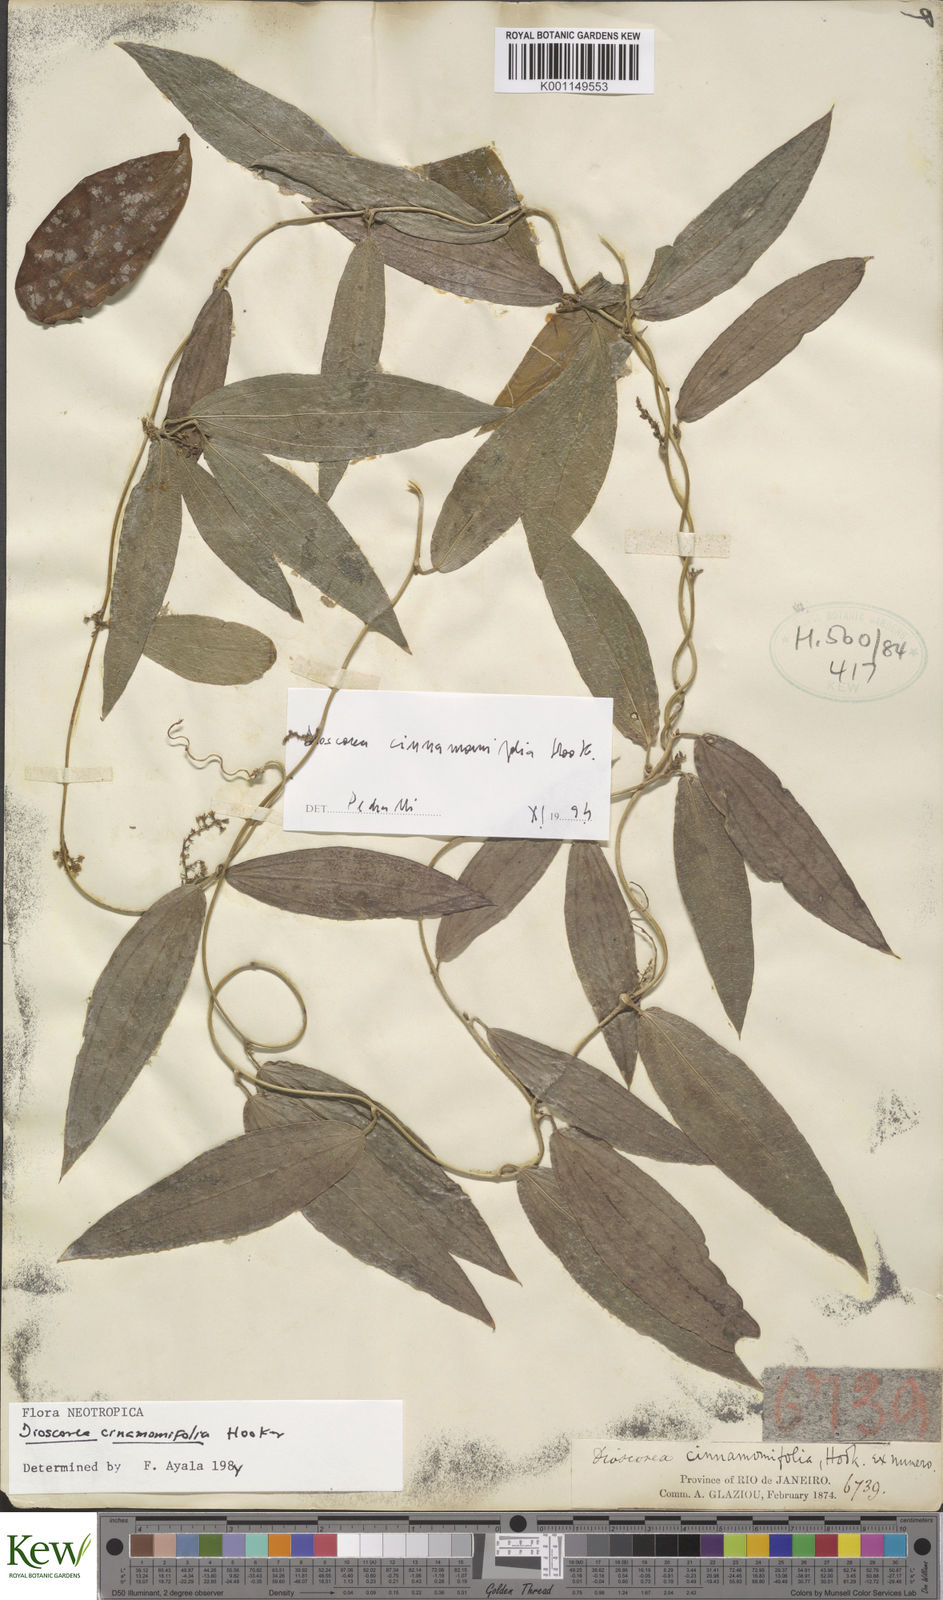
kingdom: Plantae
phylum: Tracheophyta
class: Liliopsida
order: Dioscoreales
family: Dioscoreaceae
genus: Dioscorea
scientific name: Dioscorea cinnamomifolia
